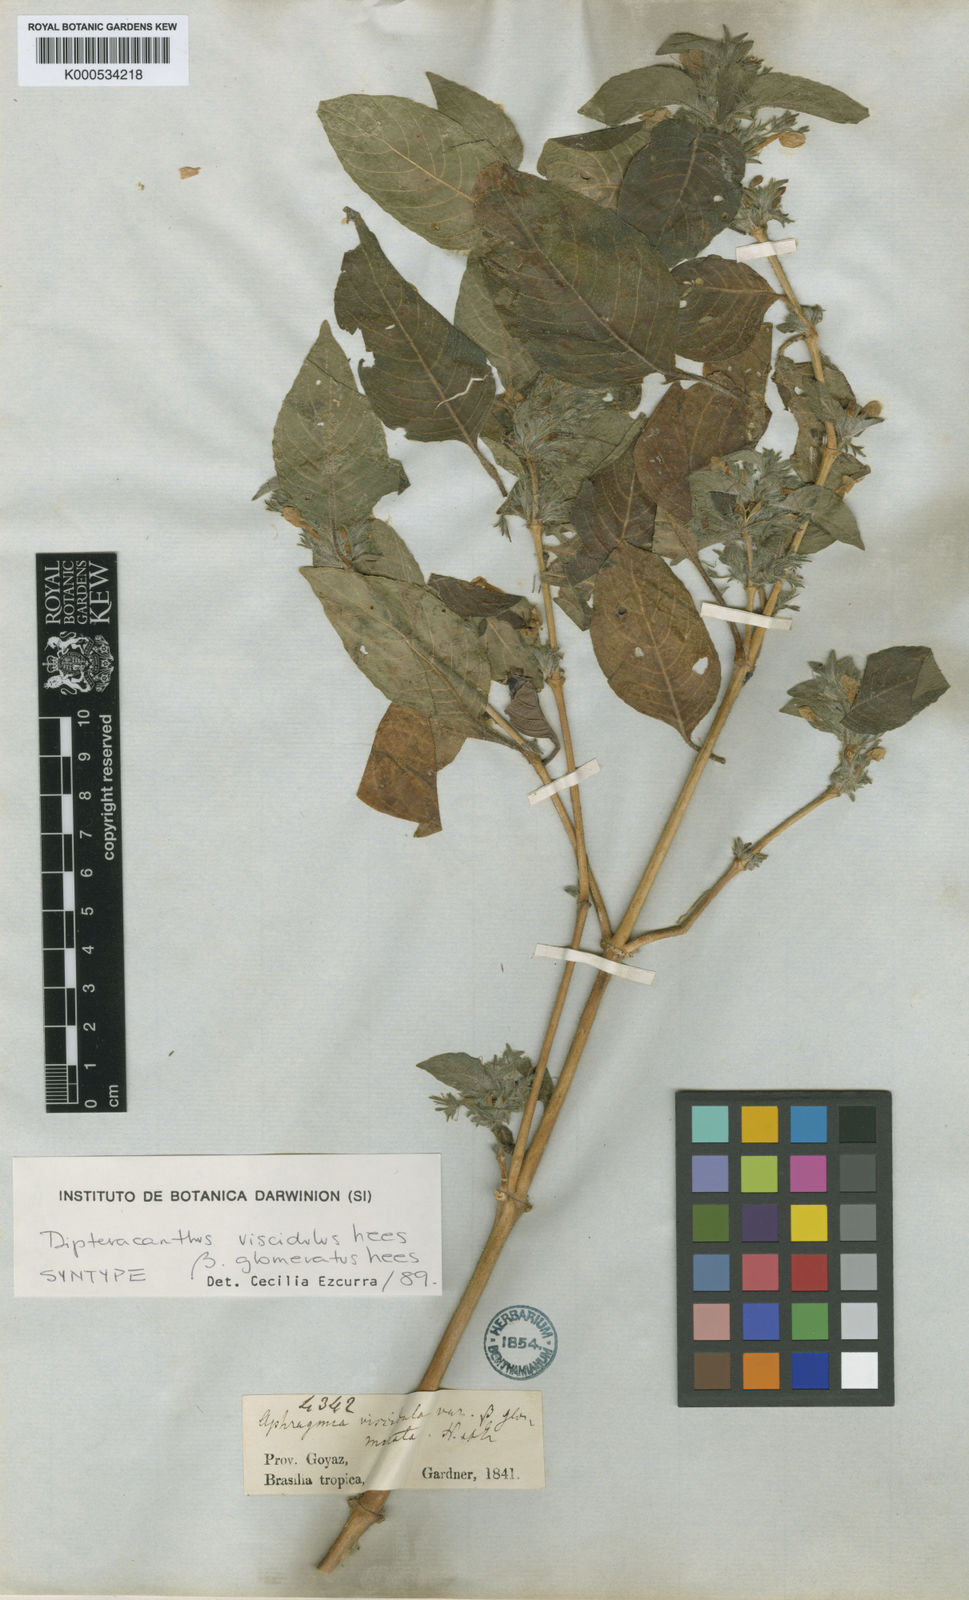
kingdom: Plantae
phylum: Tracheophyta
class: Magnoliopsida
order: Lamiales
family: Acanthaceae
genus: Ruellia
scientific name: Ruellia
